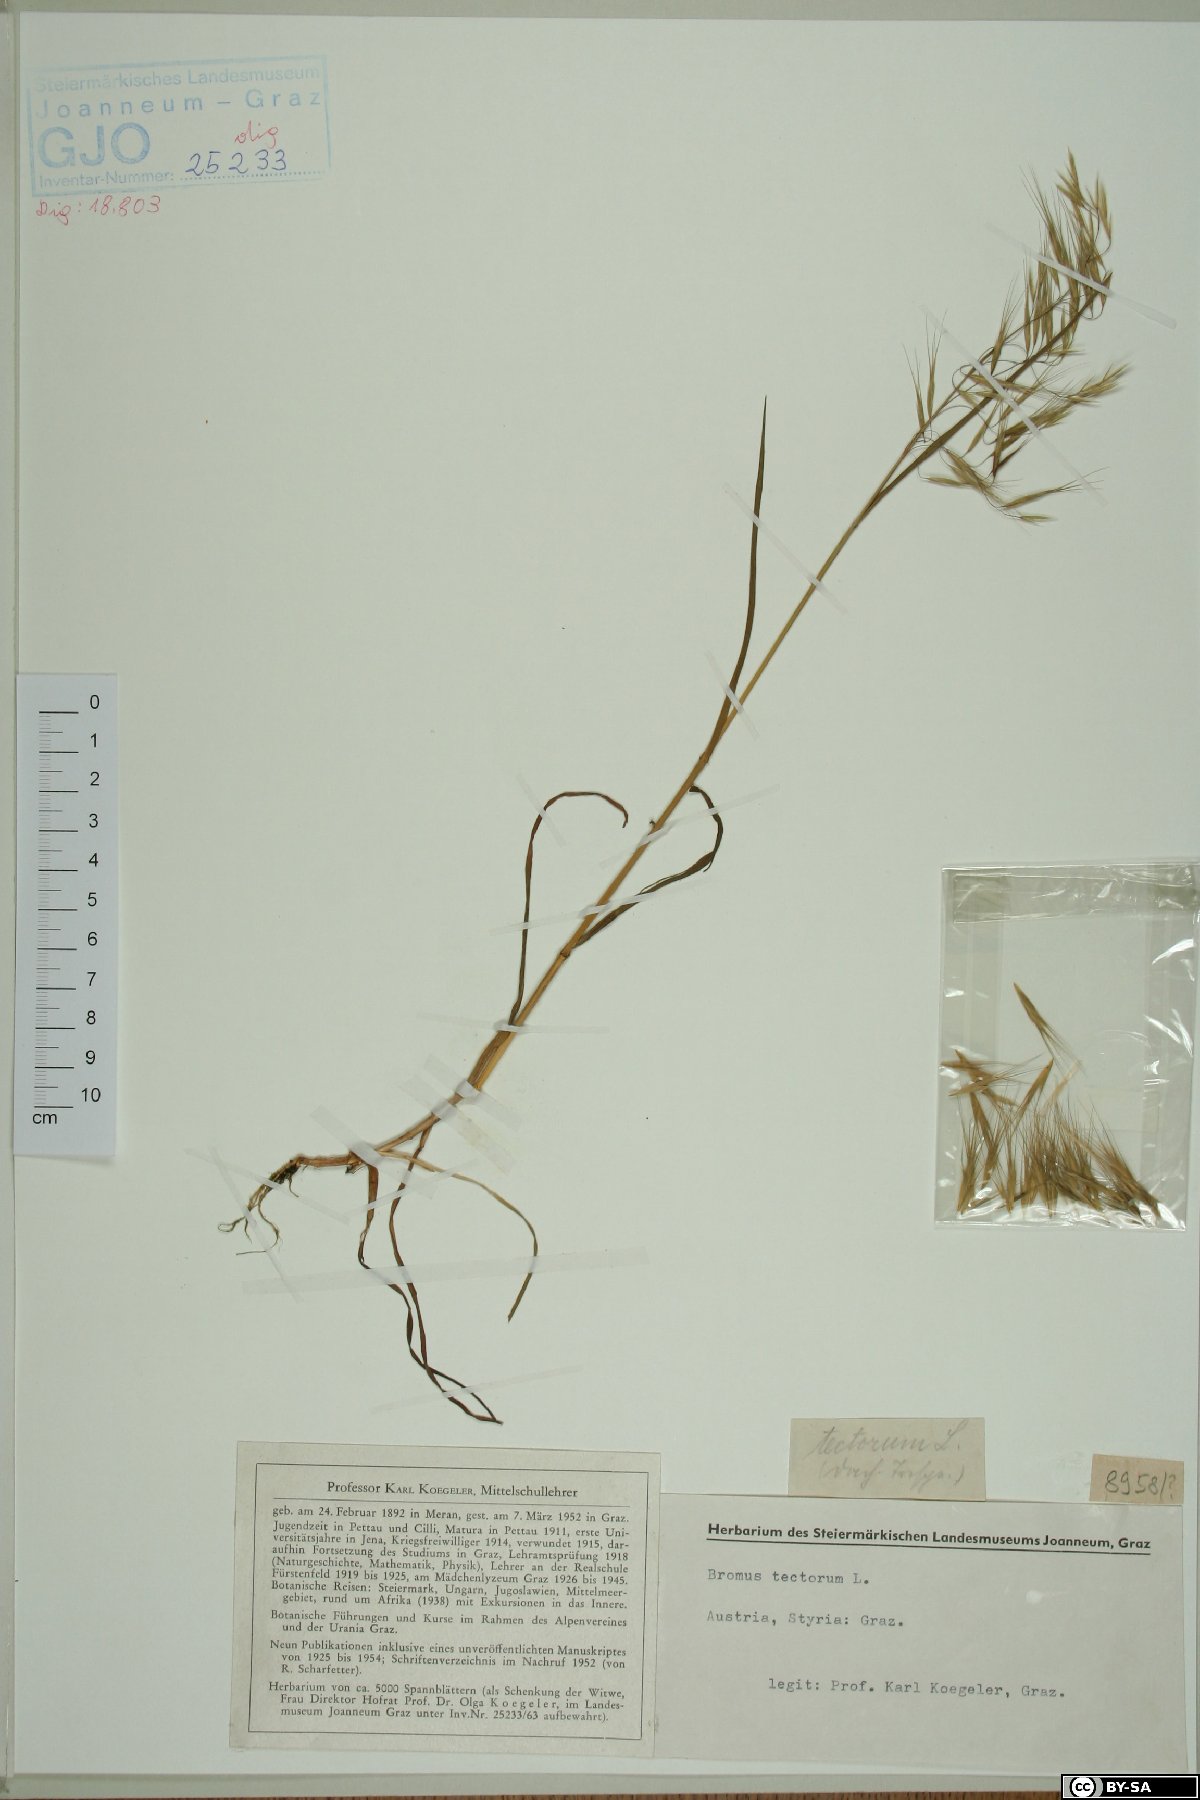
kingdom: Plantae
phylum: Tracheophyta
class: Liliopsida
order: Poales
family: Poaceae
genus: Bromus
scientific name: Bromus tectorum
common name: Cheatgrass
